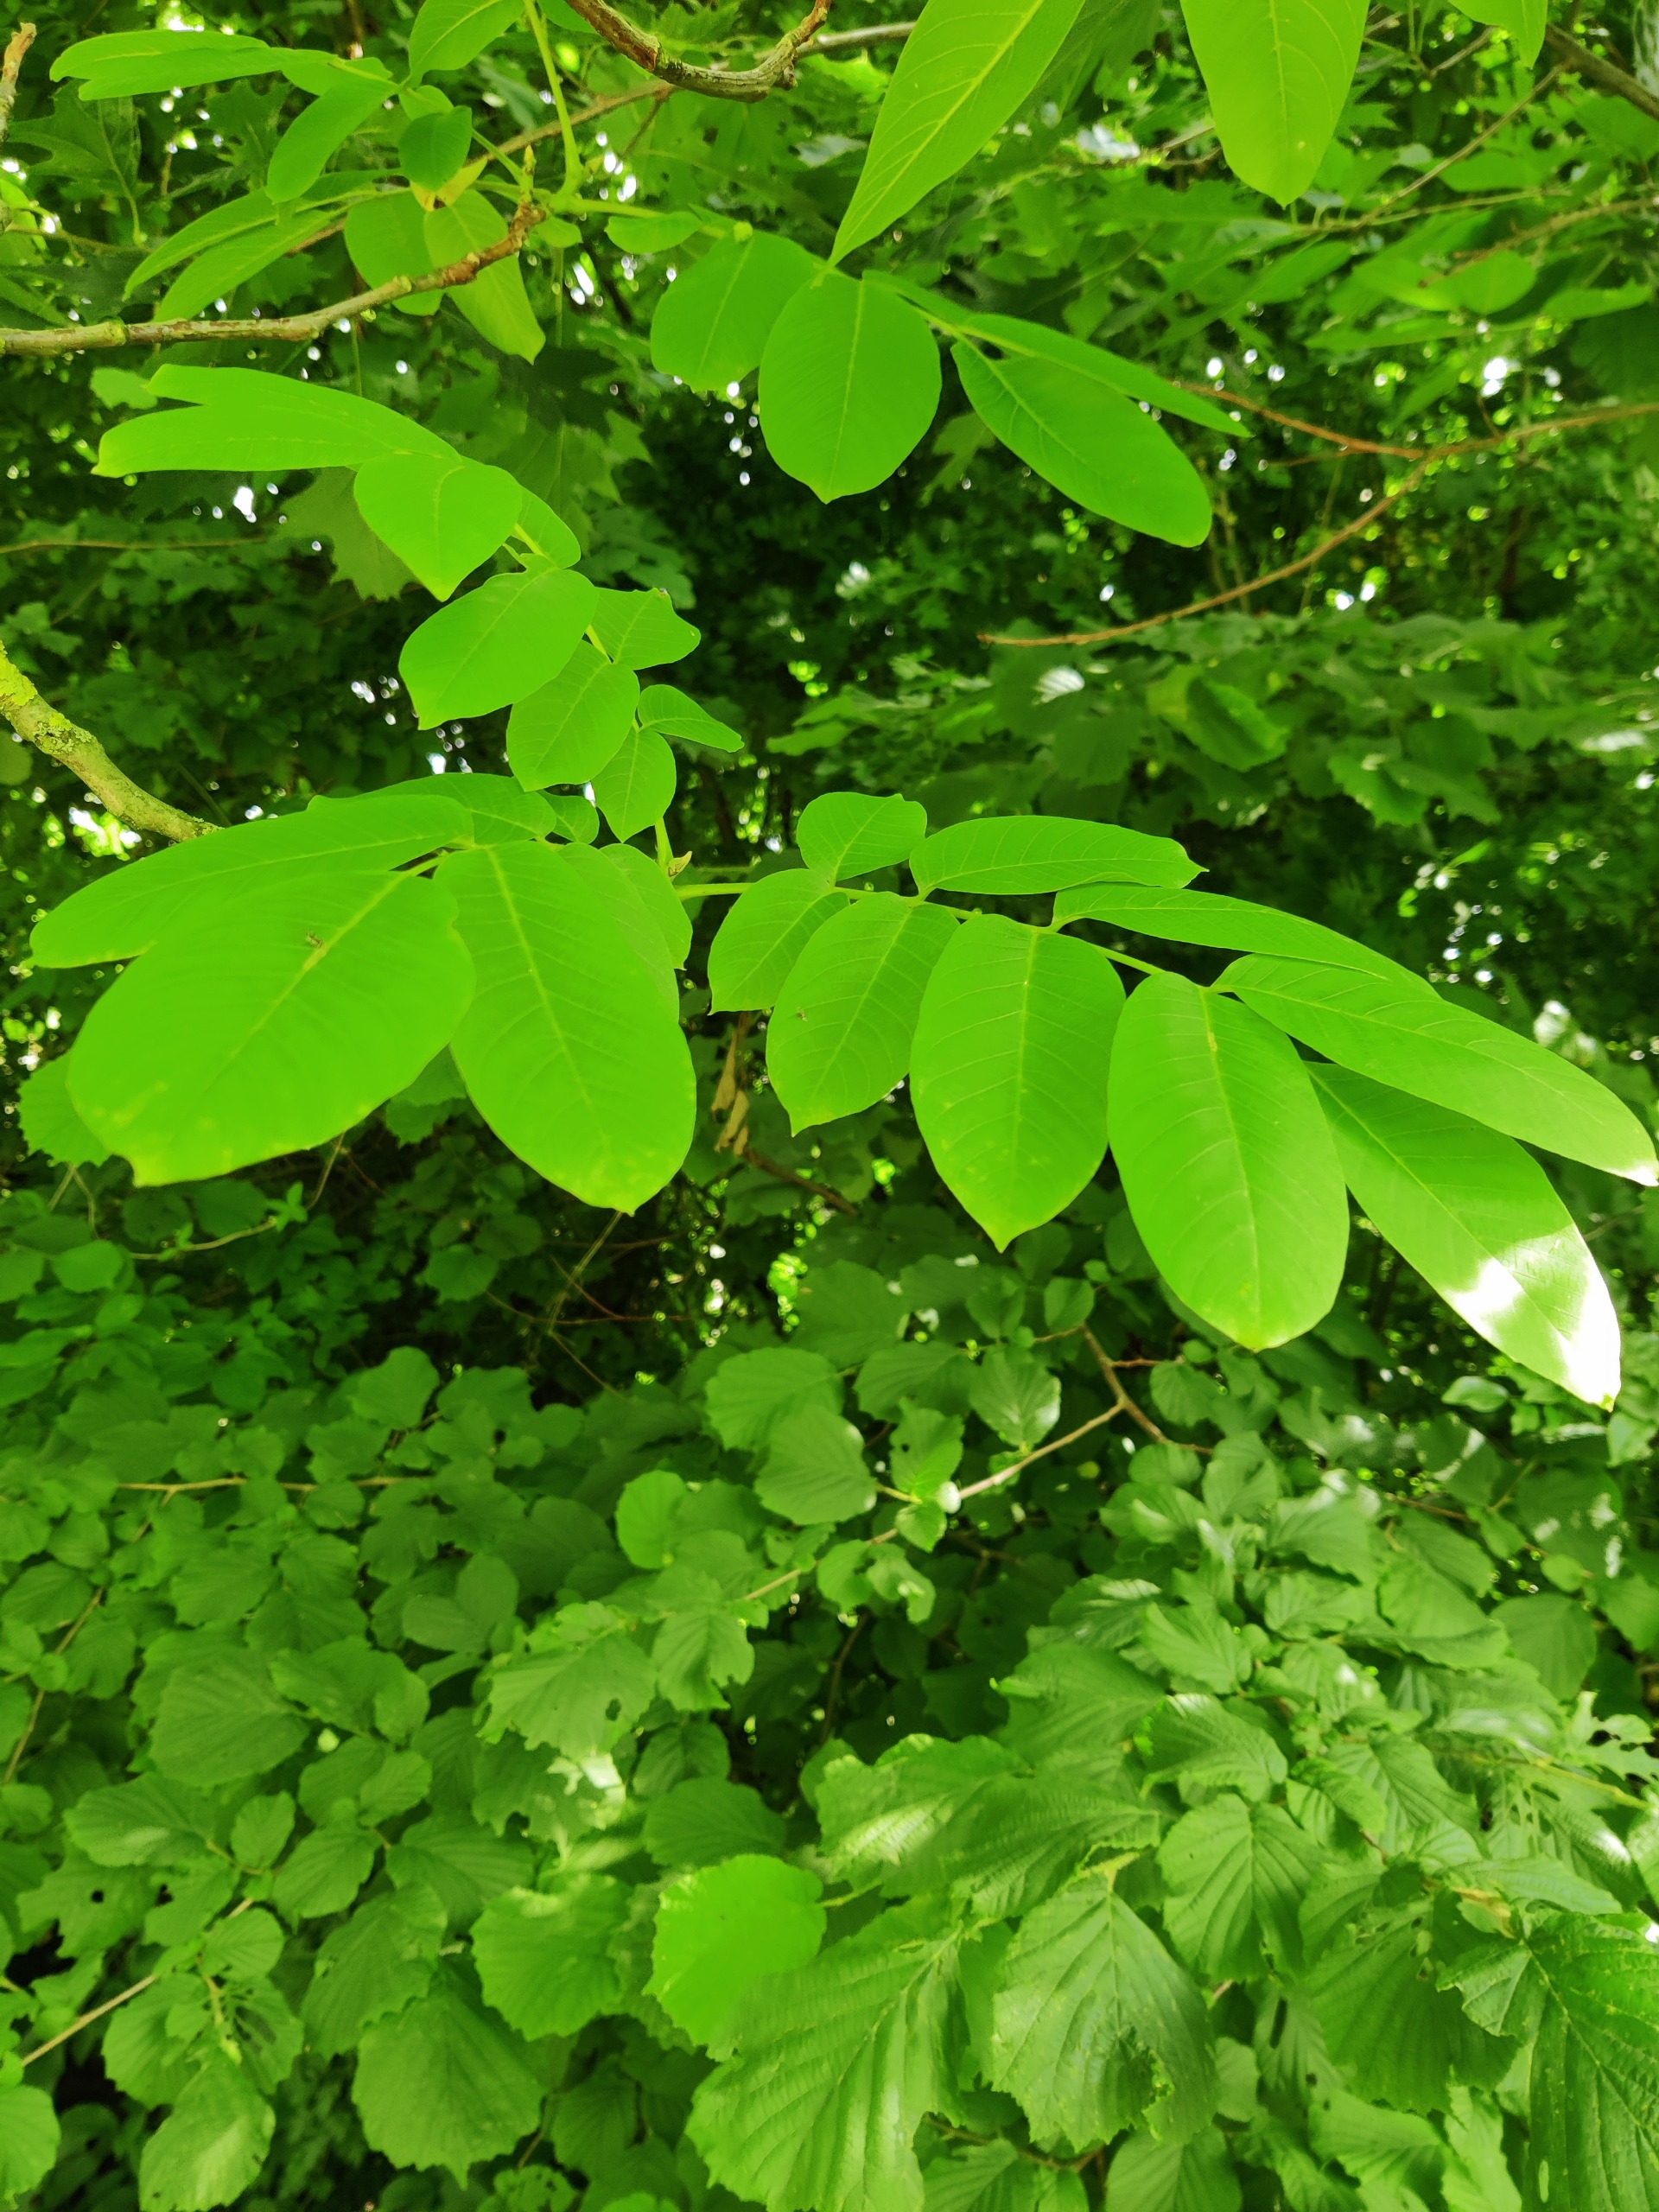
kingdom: Plantae
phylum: Tracheophyta
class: Magnoliopsida
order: Fagales
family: Juglandaceae
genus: Juglans
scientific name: Juglans regia
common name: Almindelig valnød
